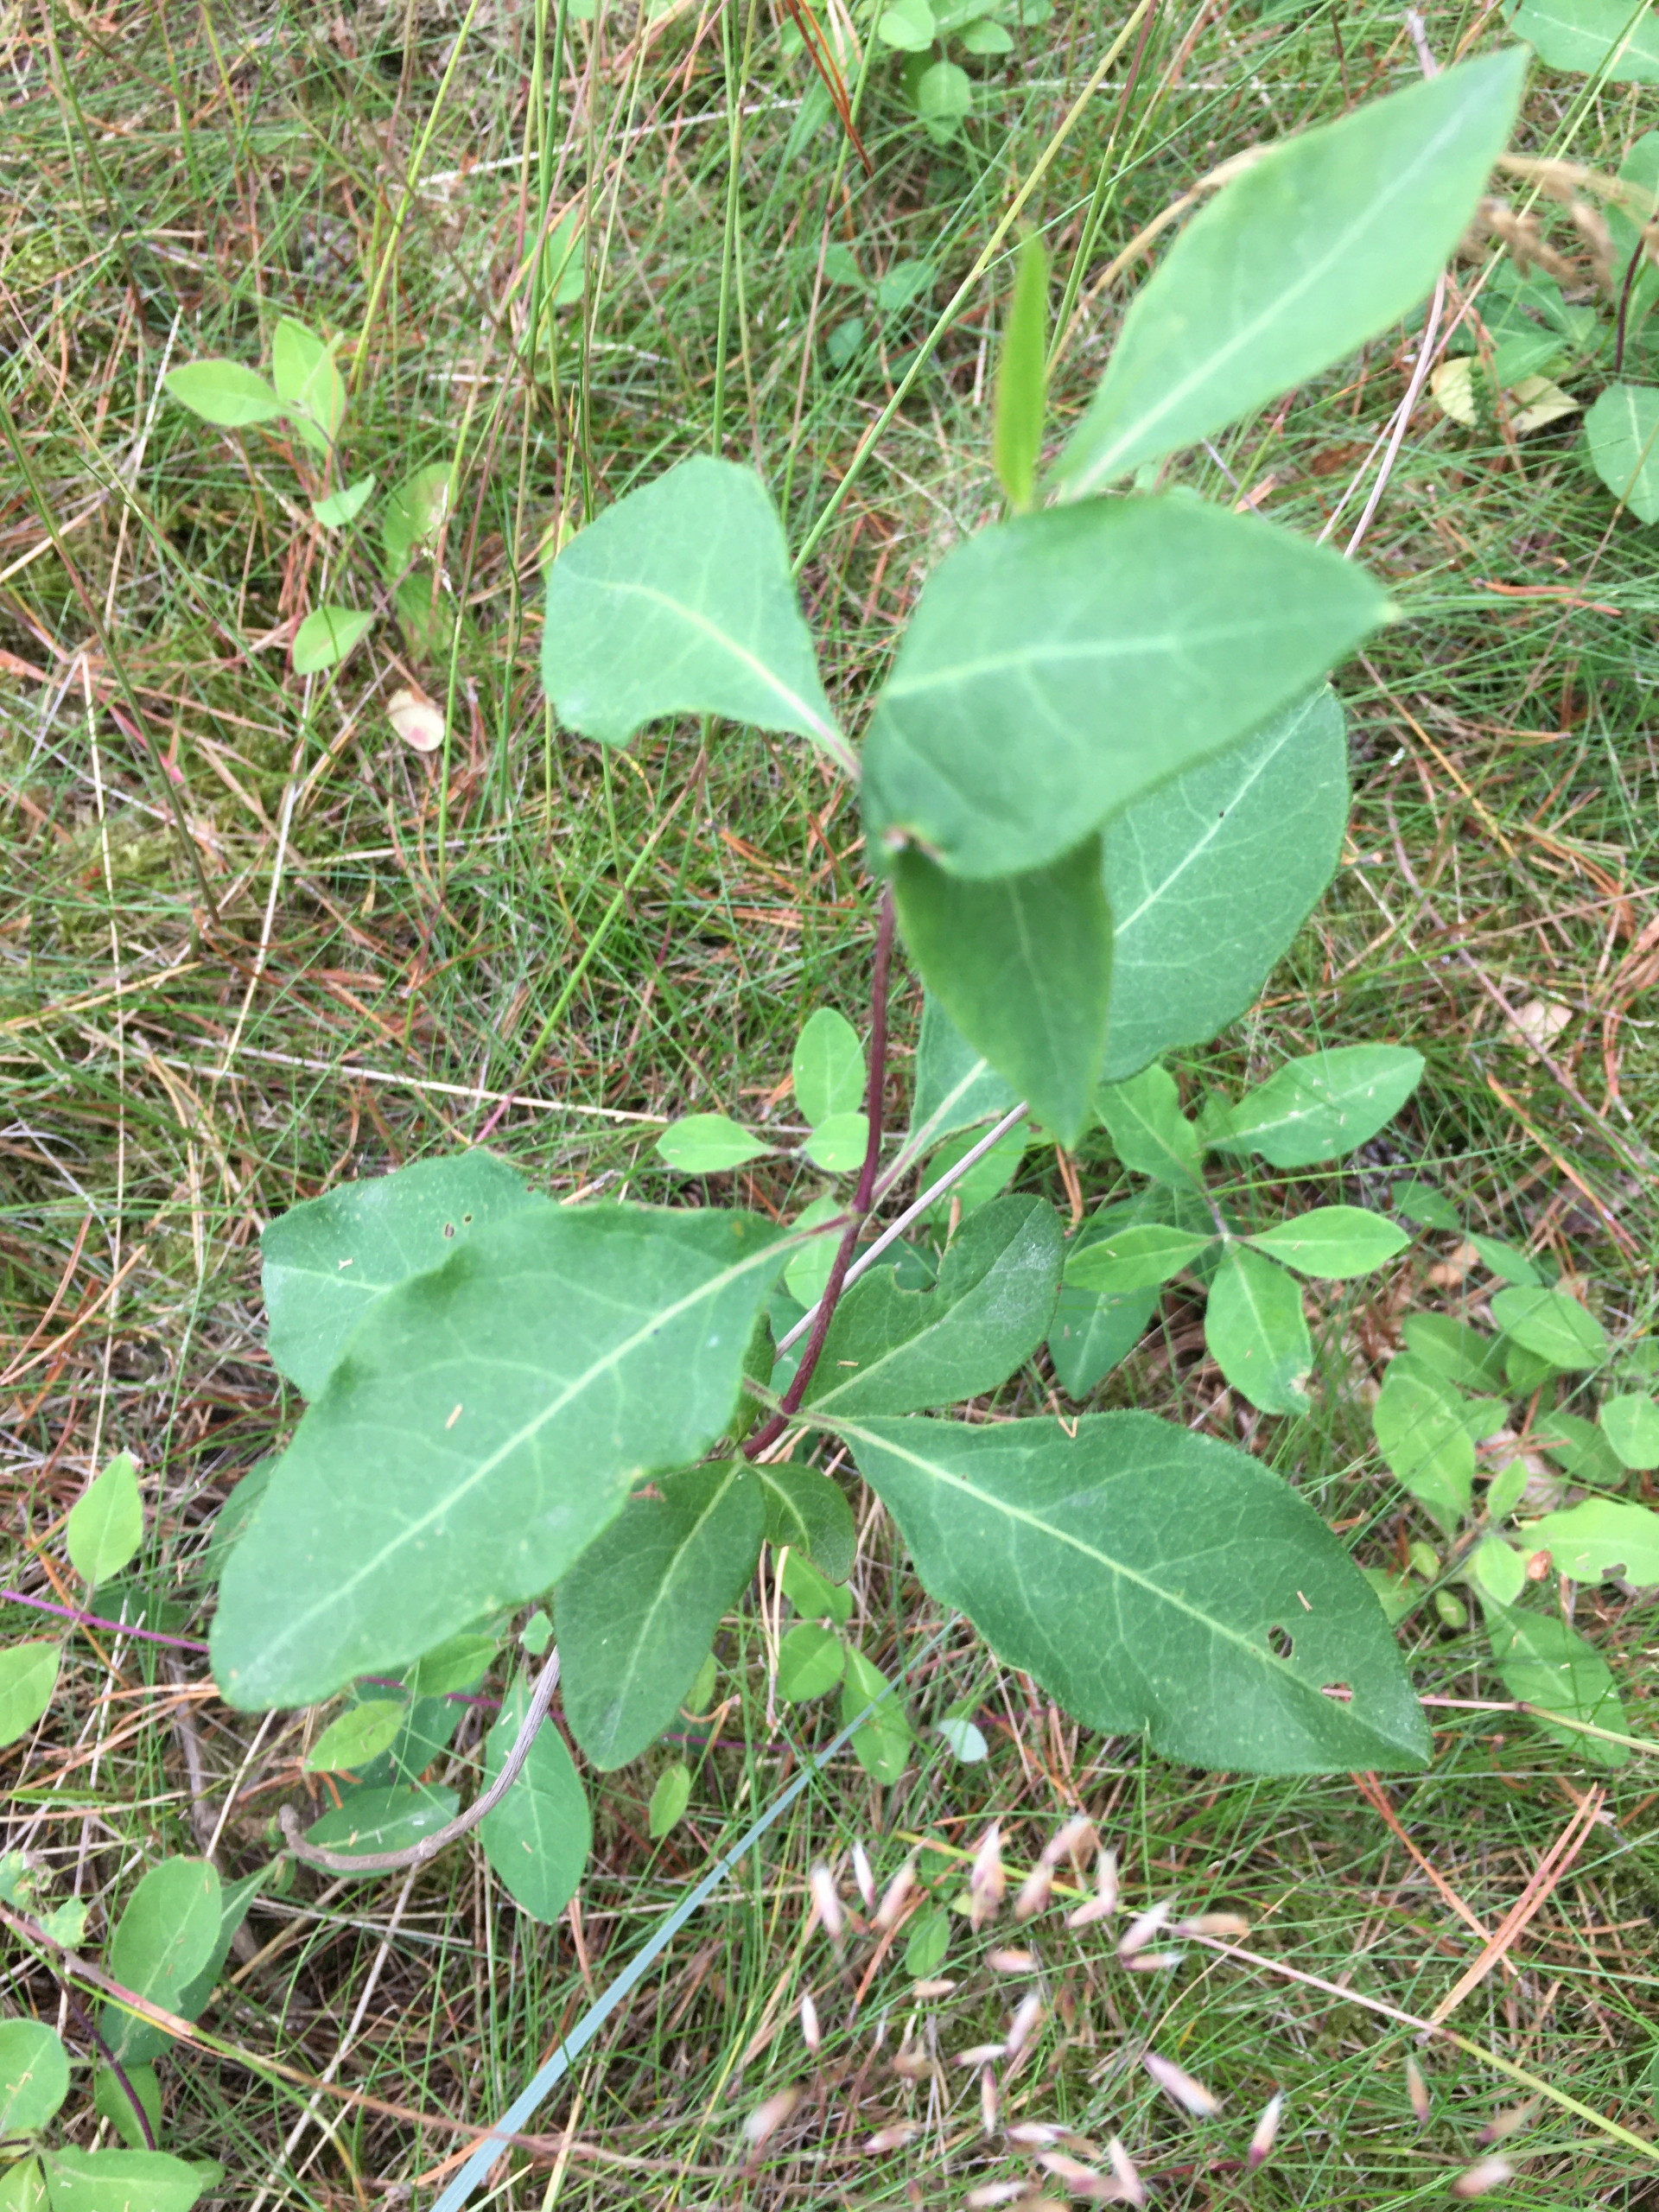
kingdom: Plantae
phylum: Tracheophyta
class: Magnoliopsida
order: Dipsacales
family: Caprifoliaceae
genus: Lonicera
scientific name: Lonicera periclymenum
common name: Almindelig gedeblad
